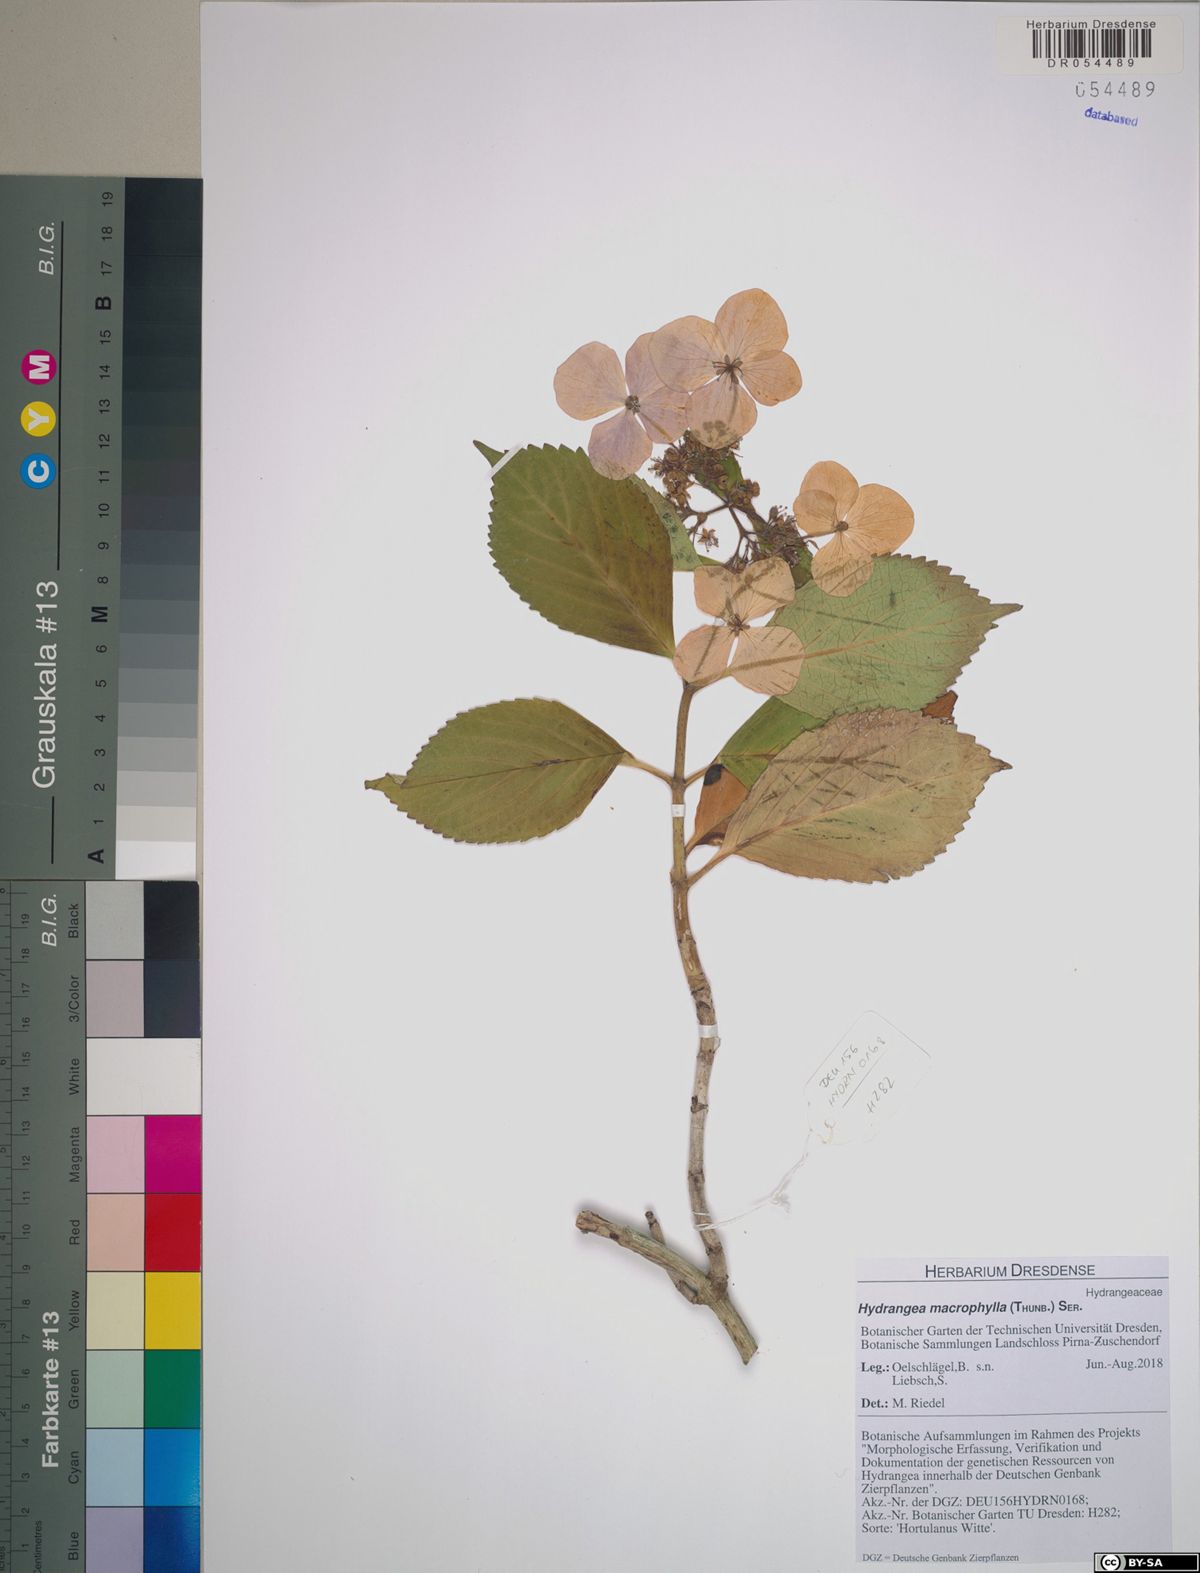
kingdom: Plantae
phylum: Tracheophyta
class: Magnoliopsida
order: Cornales
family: Hydrangeaceae
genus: Hydrangea
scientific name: Hydrangea macrophylla
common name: Hydrangea
